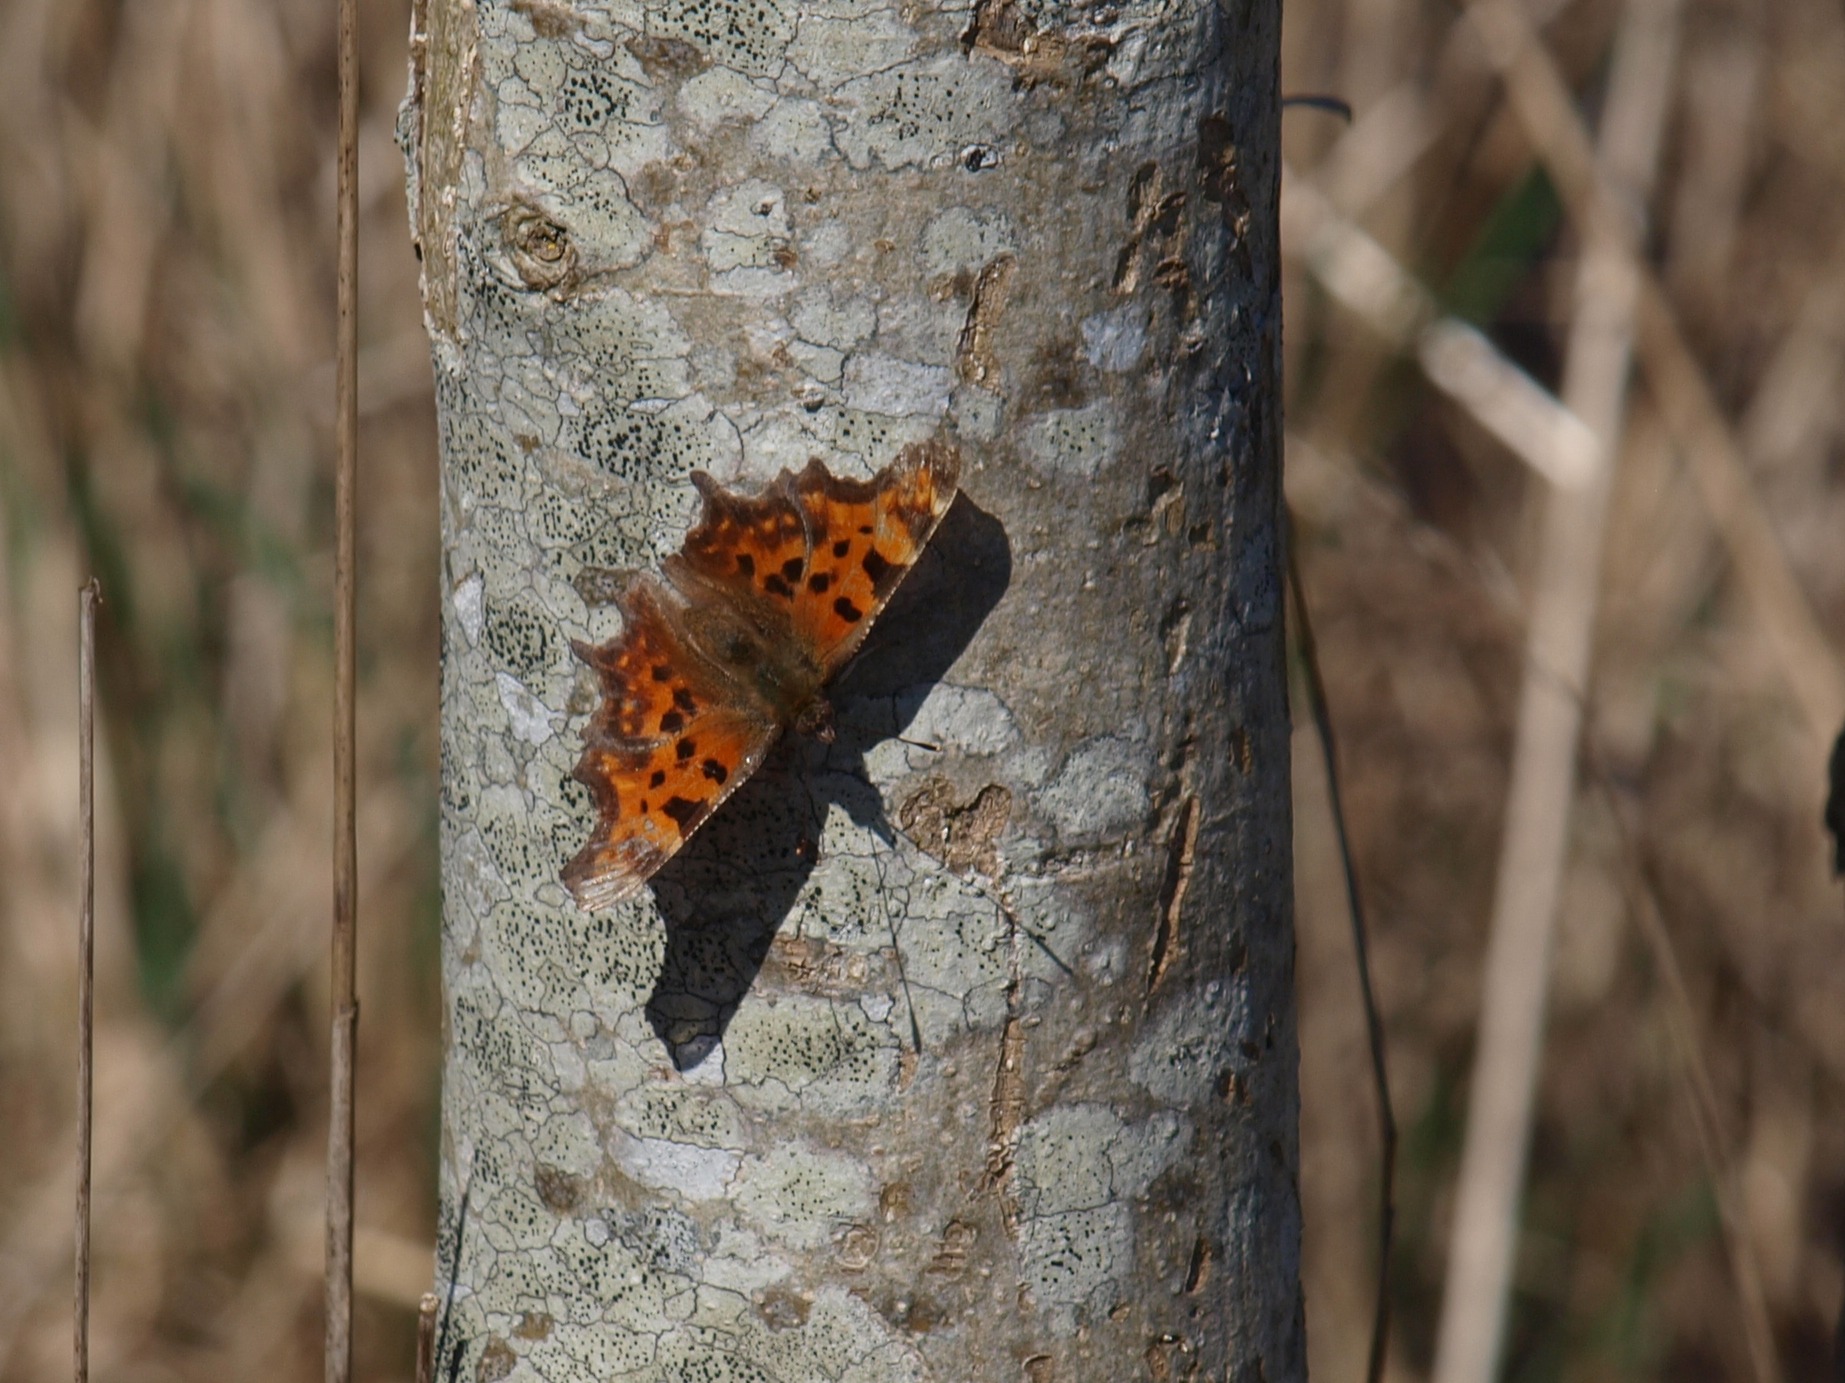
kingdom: Animalia
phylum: Arthropoda
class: Insecta
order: Lepidoptera
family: Nymphalidae
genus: Polygonia
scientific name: Polygonia c-album
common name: Det hvide C
